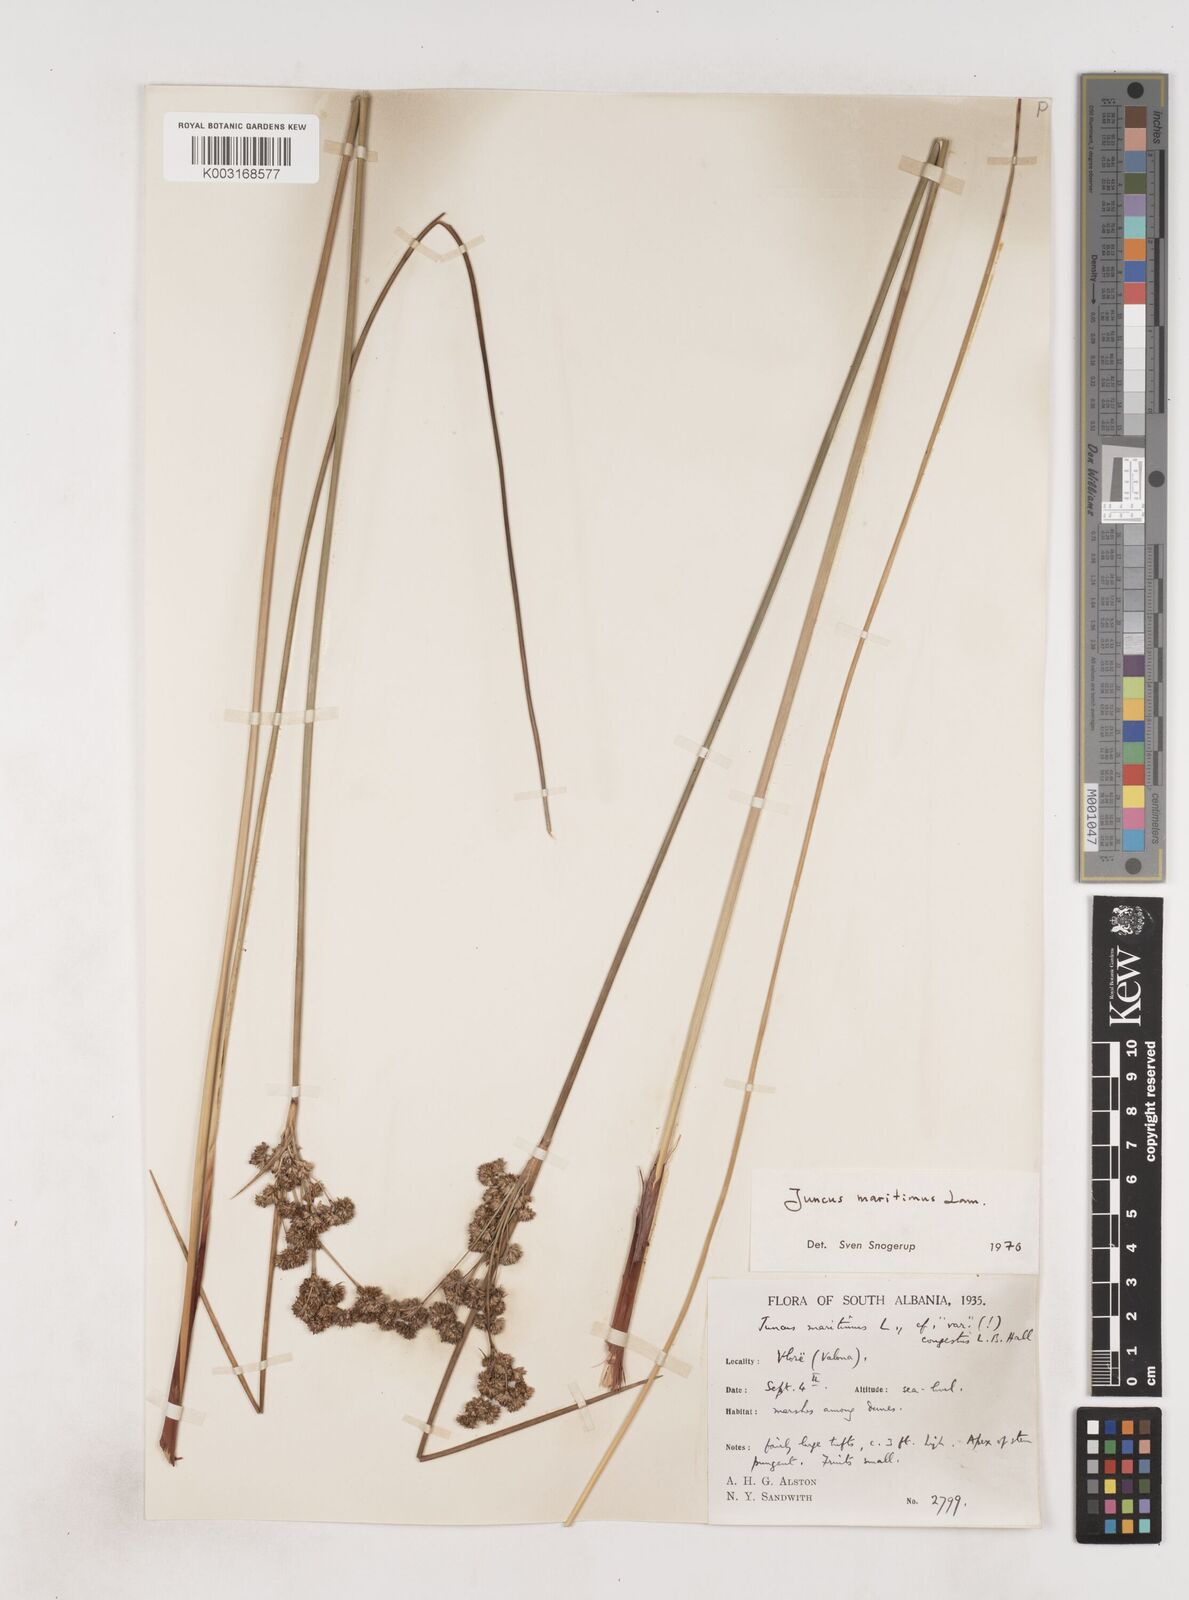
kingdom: Plantae
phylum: Tracheophyta
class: Liliopsida
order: Poales
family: Juncaceae
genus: Juncus
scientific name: Juncus maritimus
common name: Sea rush
